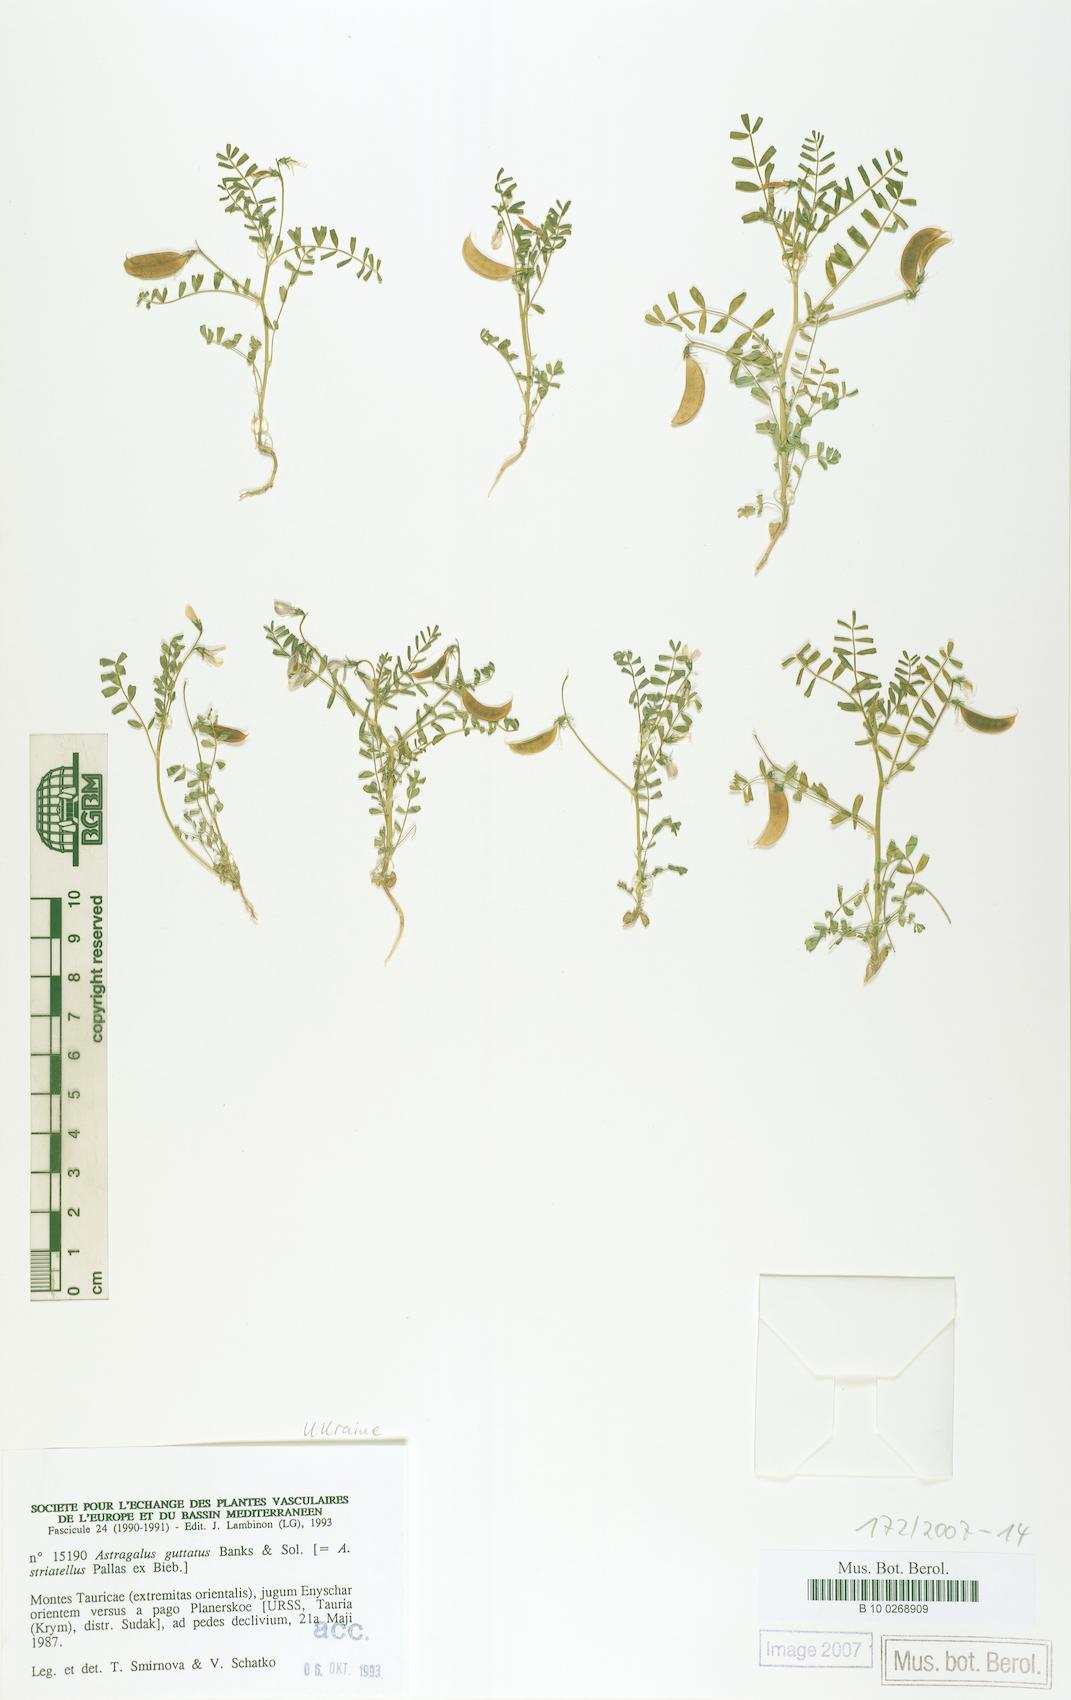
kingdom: Plantae
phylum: Tracheophyta
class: Magnoliopsida
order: Fabales
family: Fabaceae
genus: Astragalus
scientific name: Astragalus guttatus
